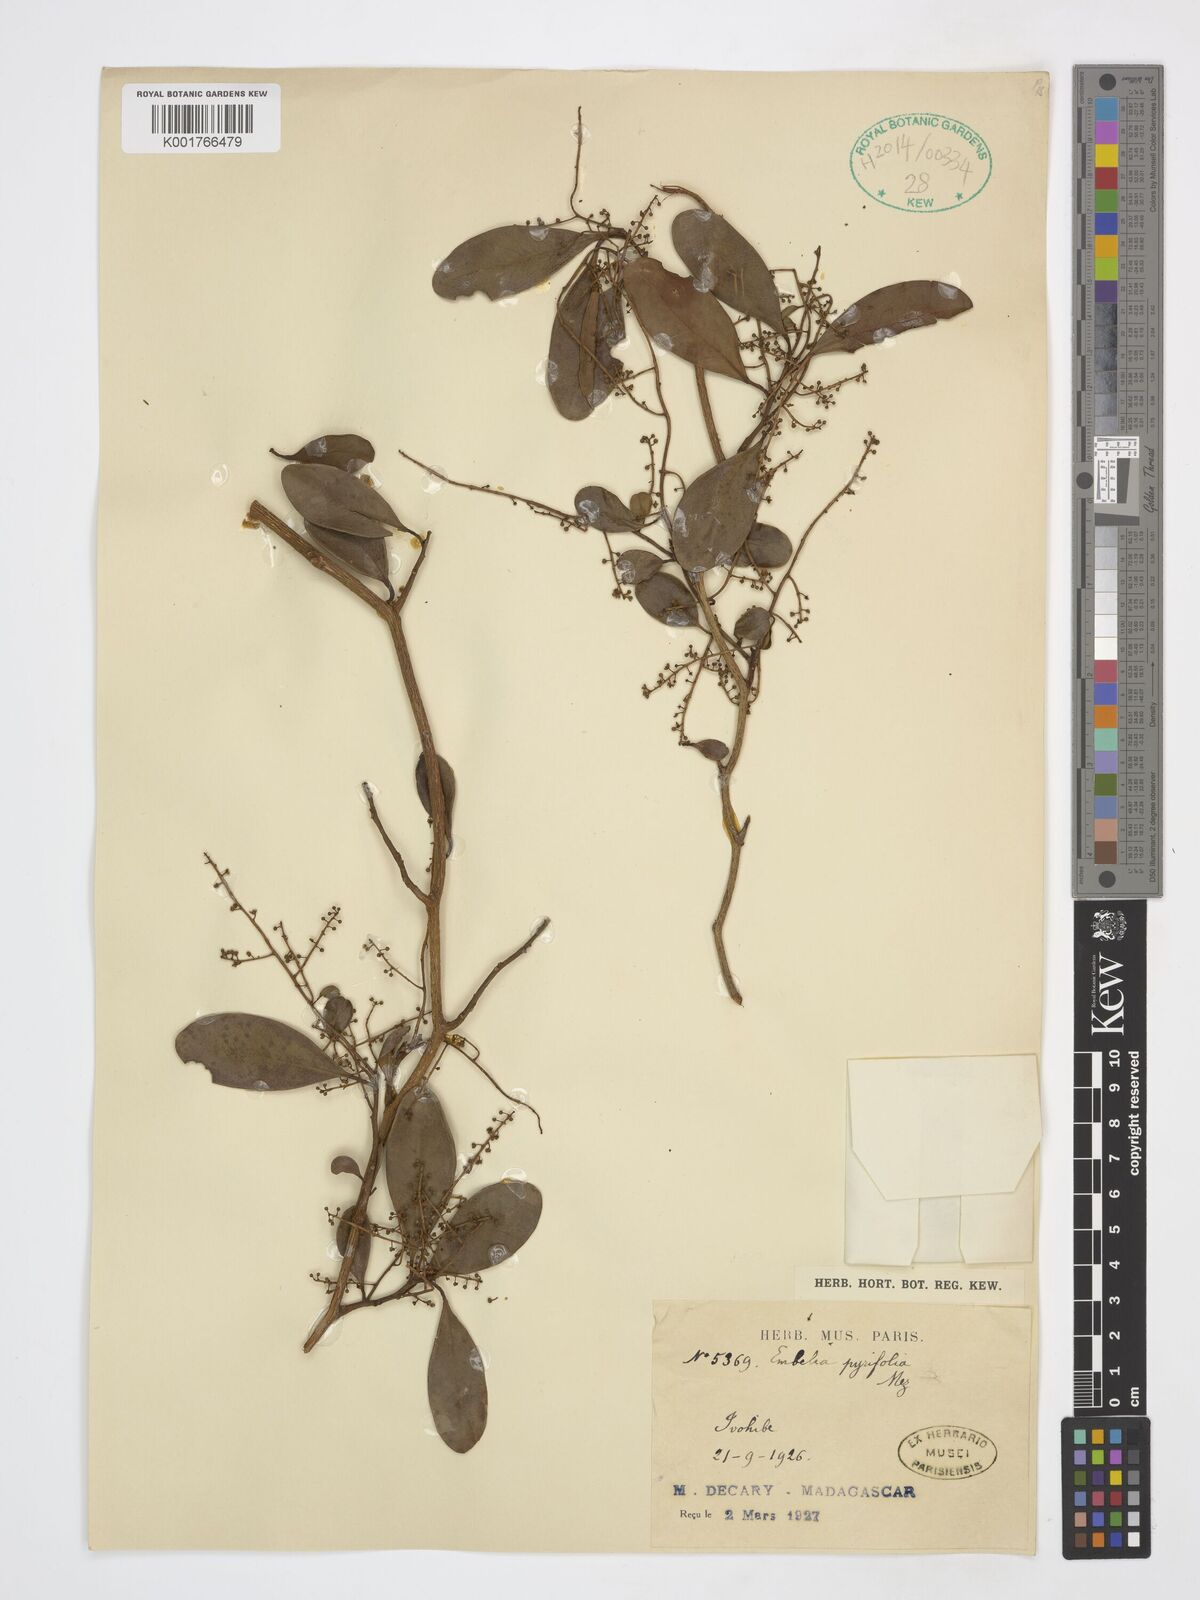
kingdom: Plantae
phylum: Tracheophyta
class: Magnoliopsida
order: Ericales
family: Primulaceae
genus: Embelia
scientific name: Embelia pyrifolia
